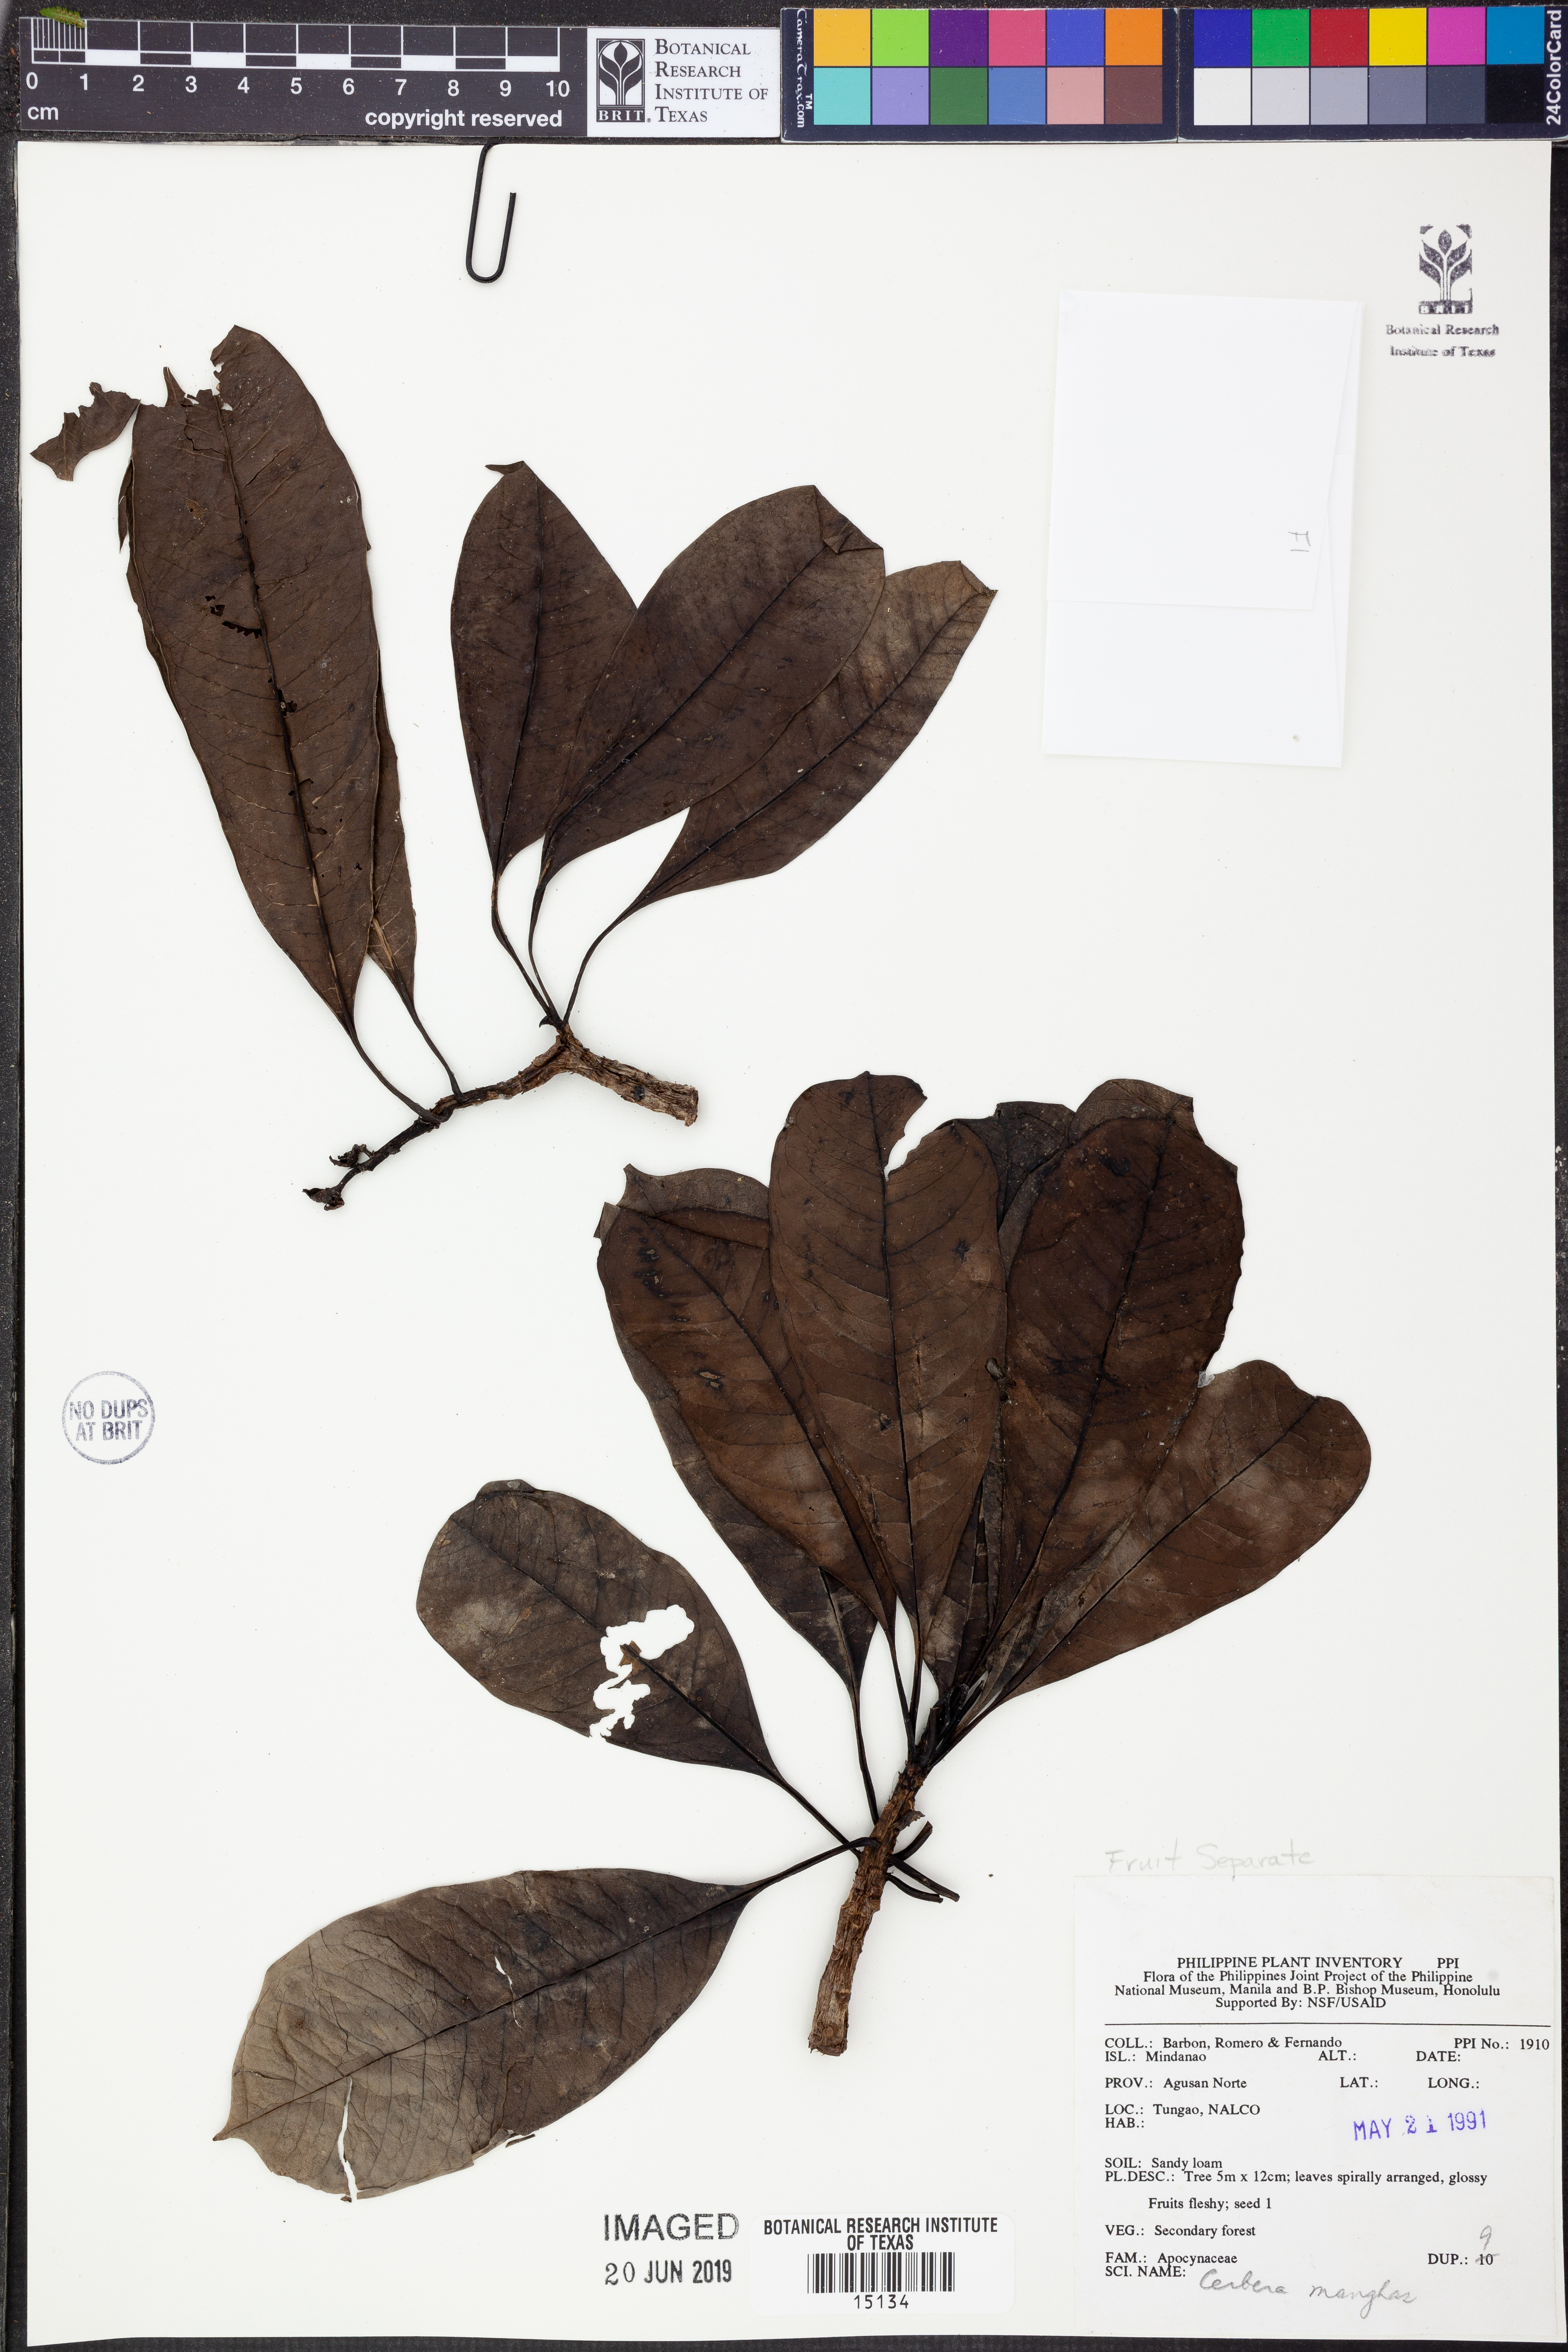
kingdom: Plantae
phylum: Tracheophyta
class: Magnoliopsida
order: Gentianales
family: Apocynaceae
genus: Cerbera
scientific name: Cerbera manghas
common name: Reva
